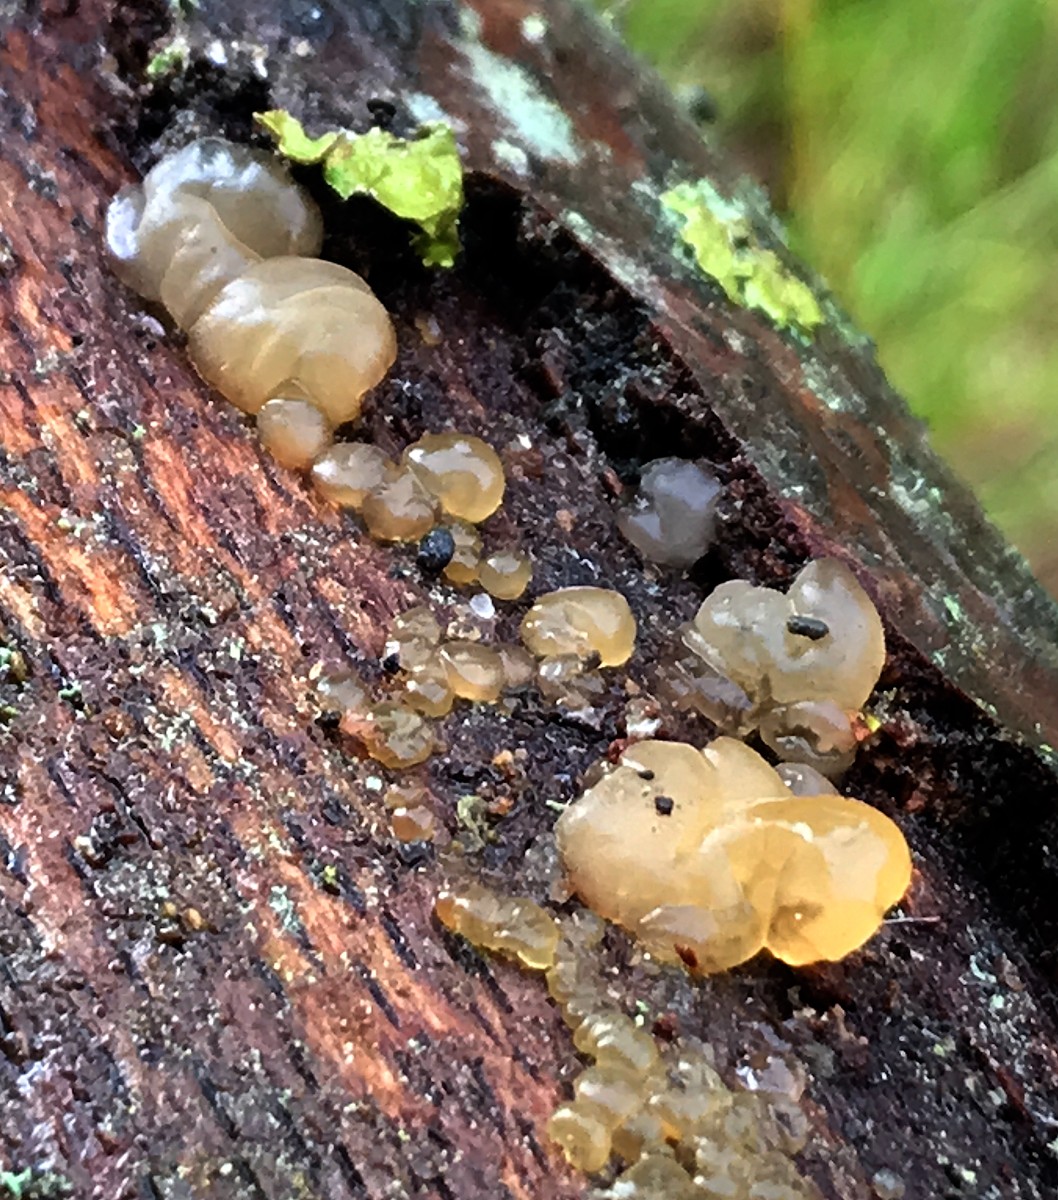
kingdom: Fungi
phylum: Basidiomycota
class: Dacrymycetes
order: Dacrymycetales
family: Dacrymycetaceae
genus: Dacrymyces
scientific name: Dacrymyces stillatus
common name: almindelig tåresvamp
